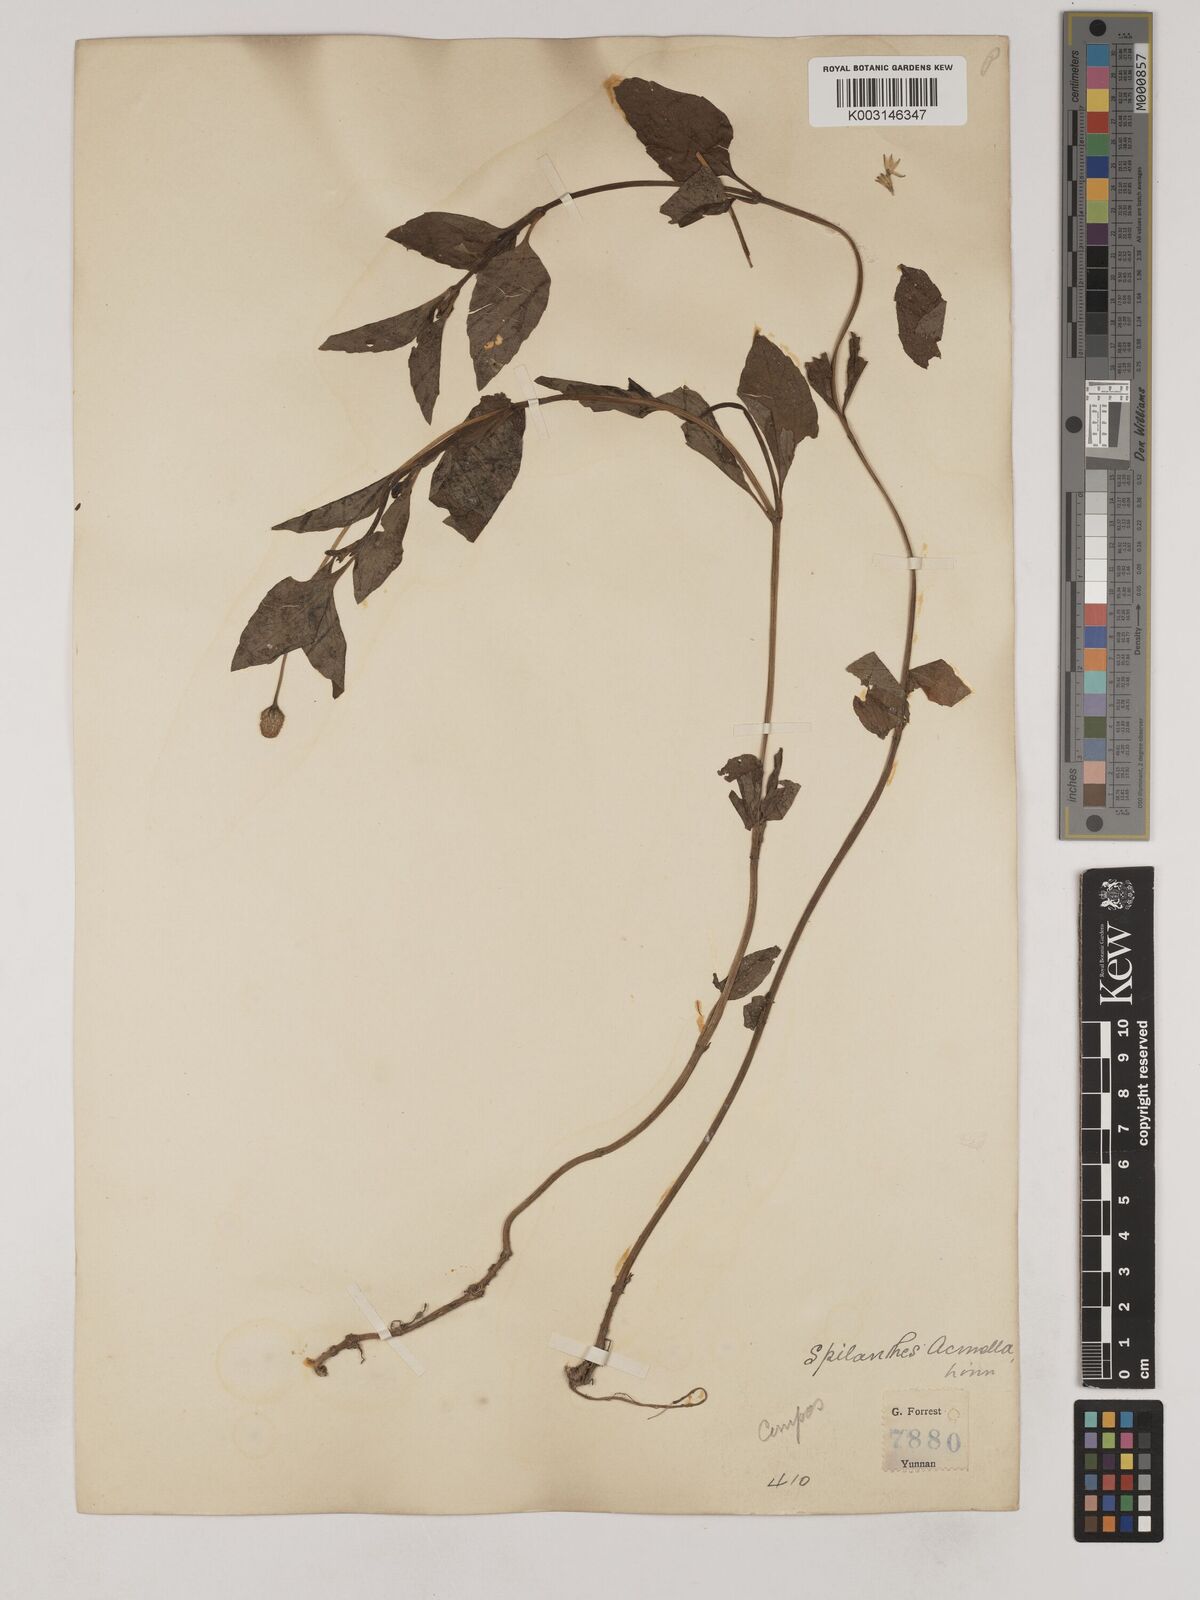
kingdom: Plantae
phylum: Tracheophyta
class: Magnoliopsida
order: Asterales
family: Asteraceae
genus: Acmella
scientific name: Acmella paniculata
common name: Panicled spot flower
